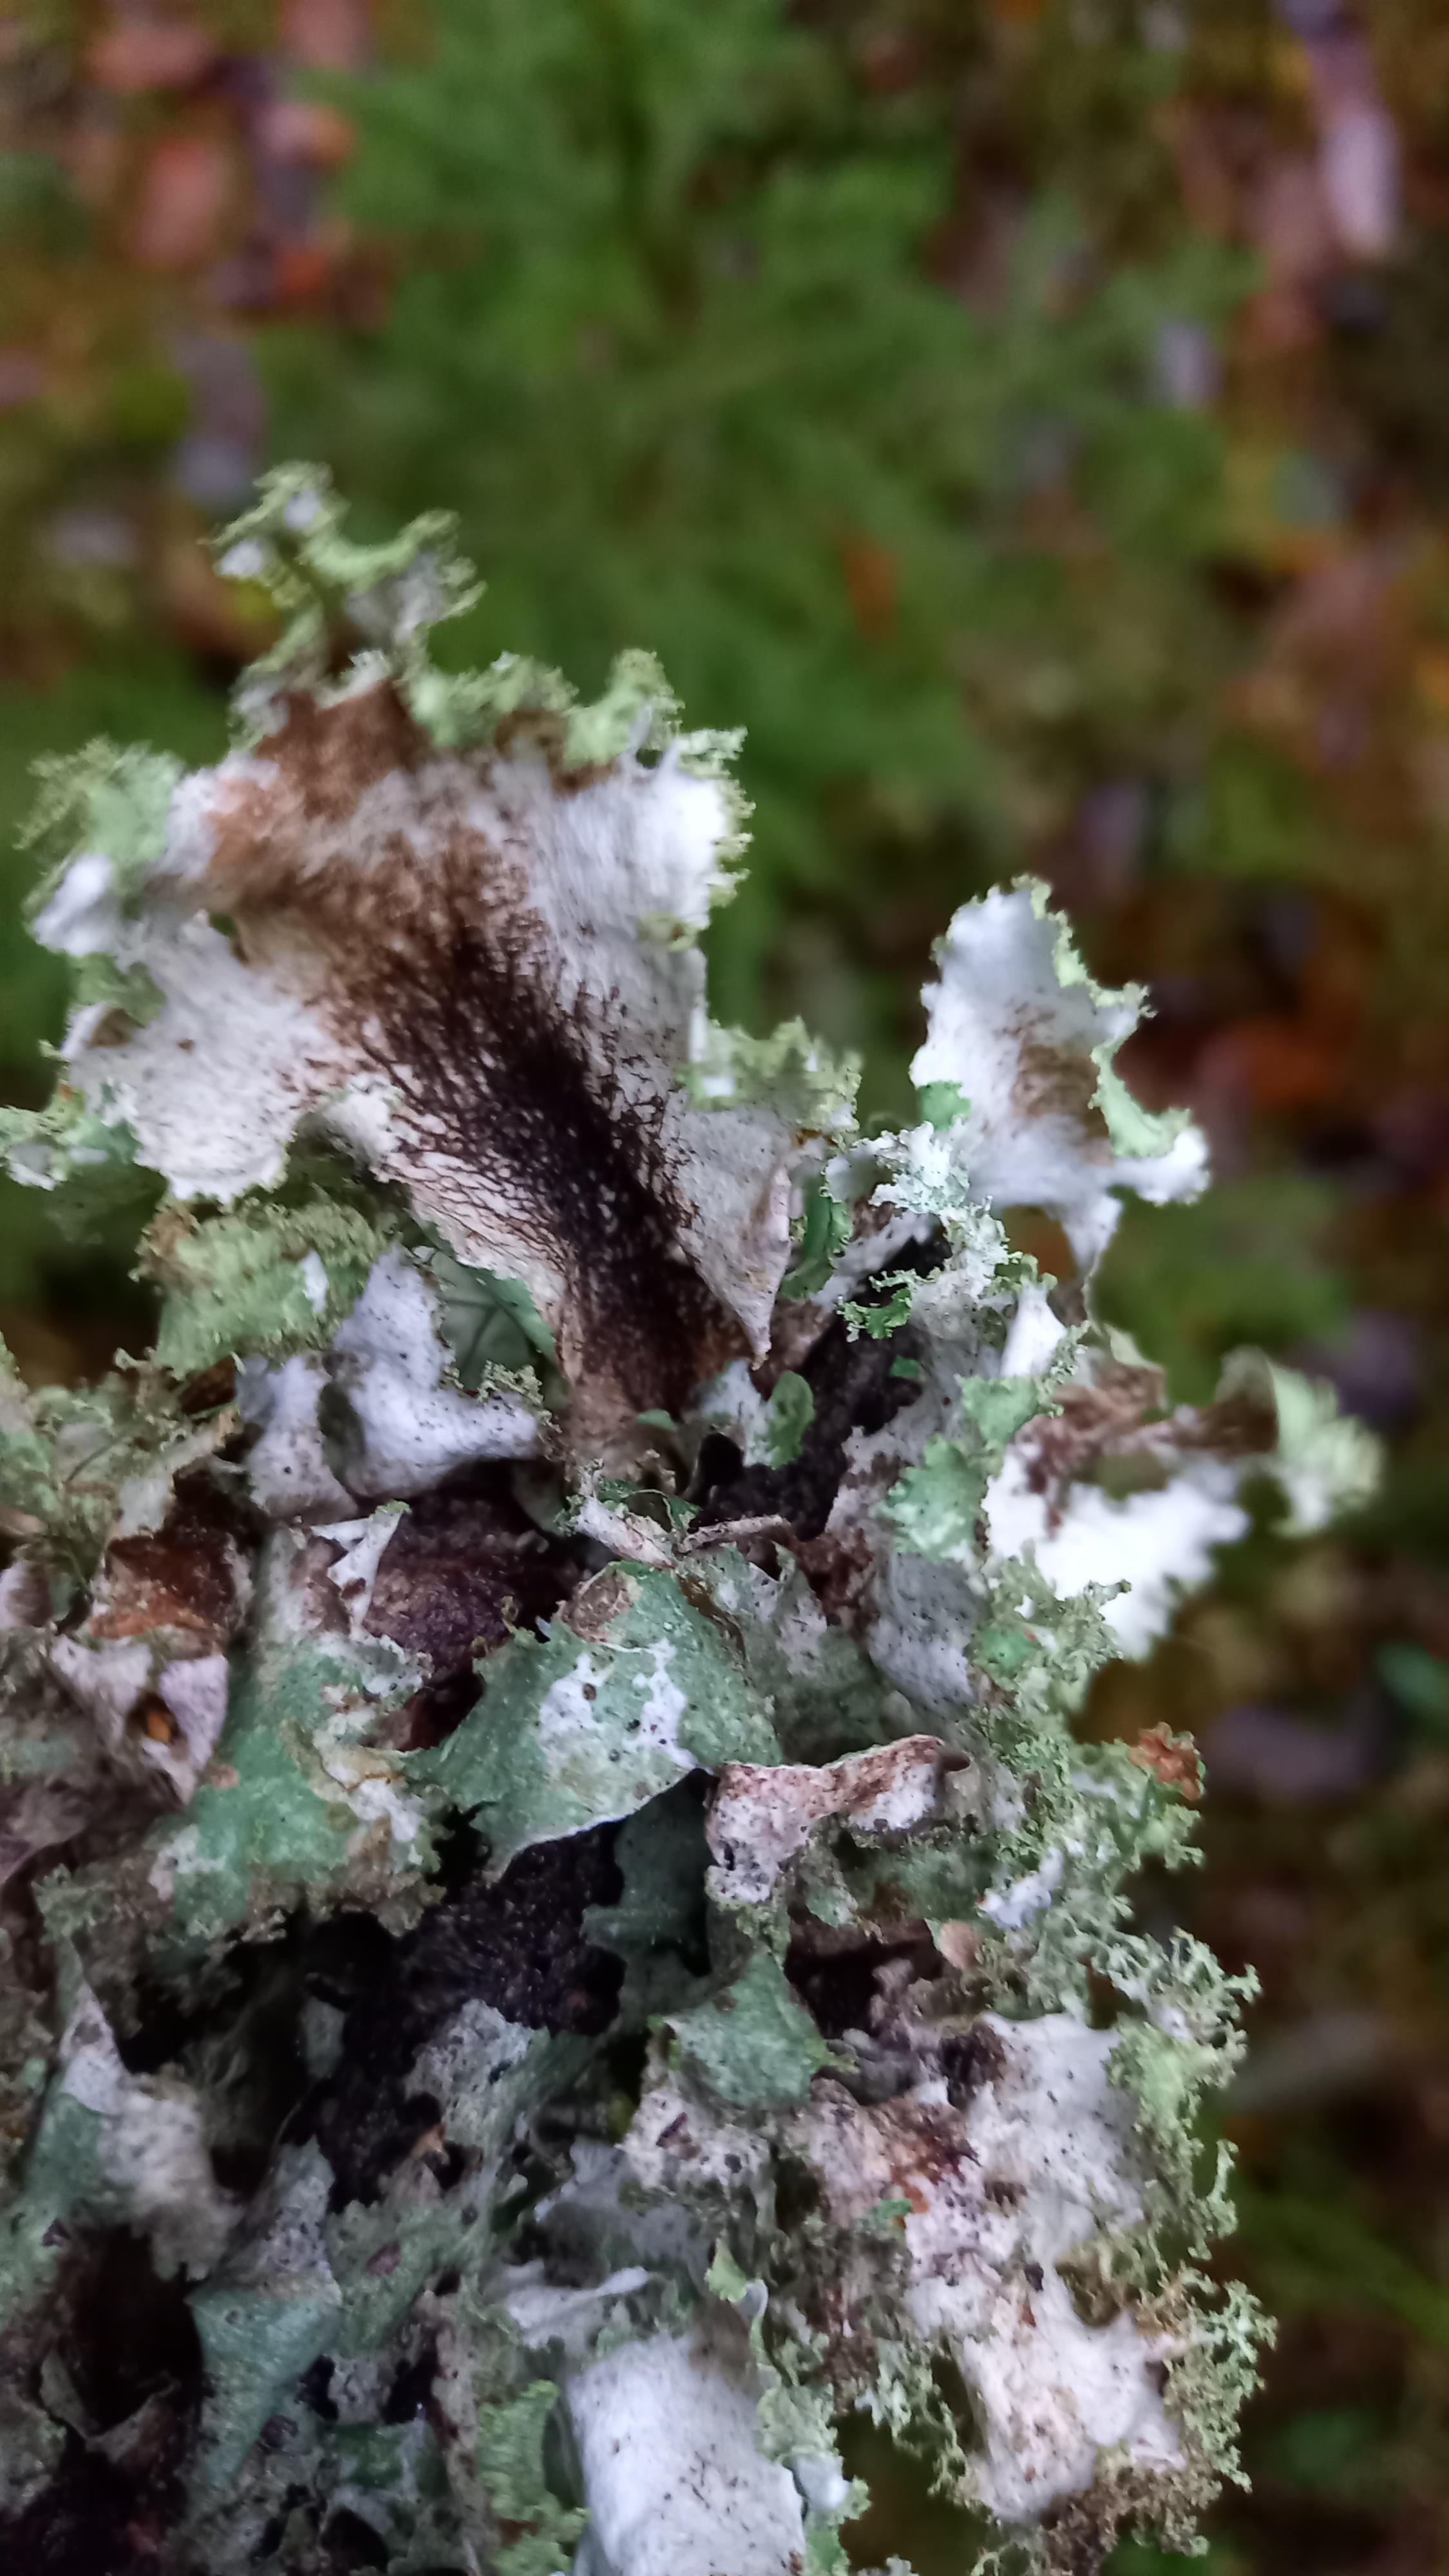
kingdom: Fungi
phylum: Ascomycota
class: Lecanoromycetes
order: Lecanorales
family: Parmeliaceae
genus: Platismatia
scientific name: Platismatia glauca
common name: blågrå papirlav
